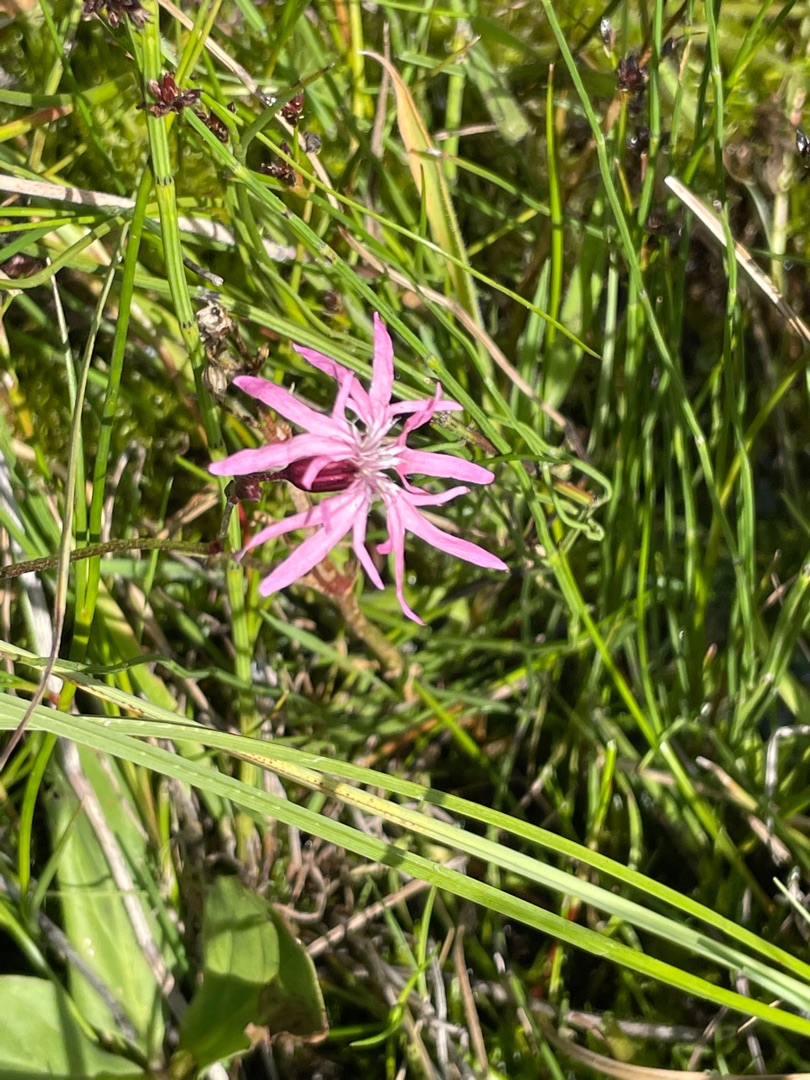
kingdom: Plantae
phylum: Tracheophyta
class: Magnoliopsida
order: Caryophyllales
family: Caryophyllaceae
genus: Silene
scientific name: Silene flos-cuculi
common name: Trævlekrone
